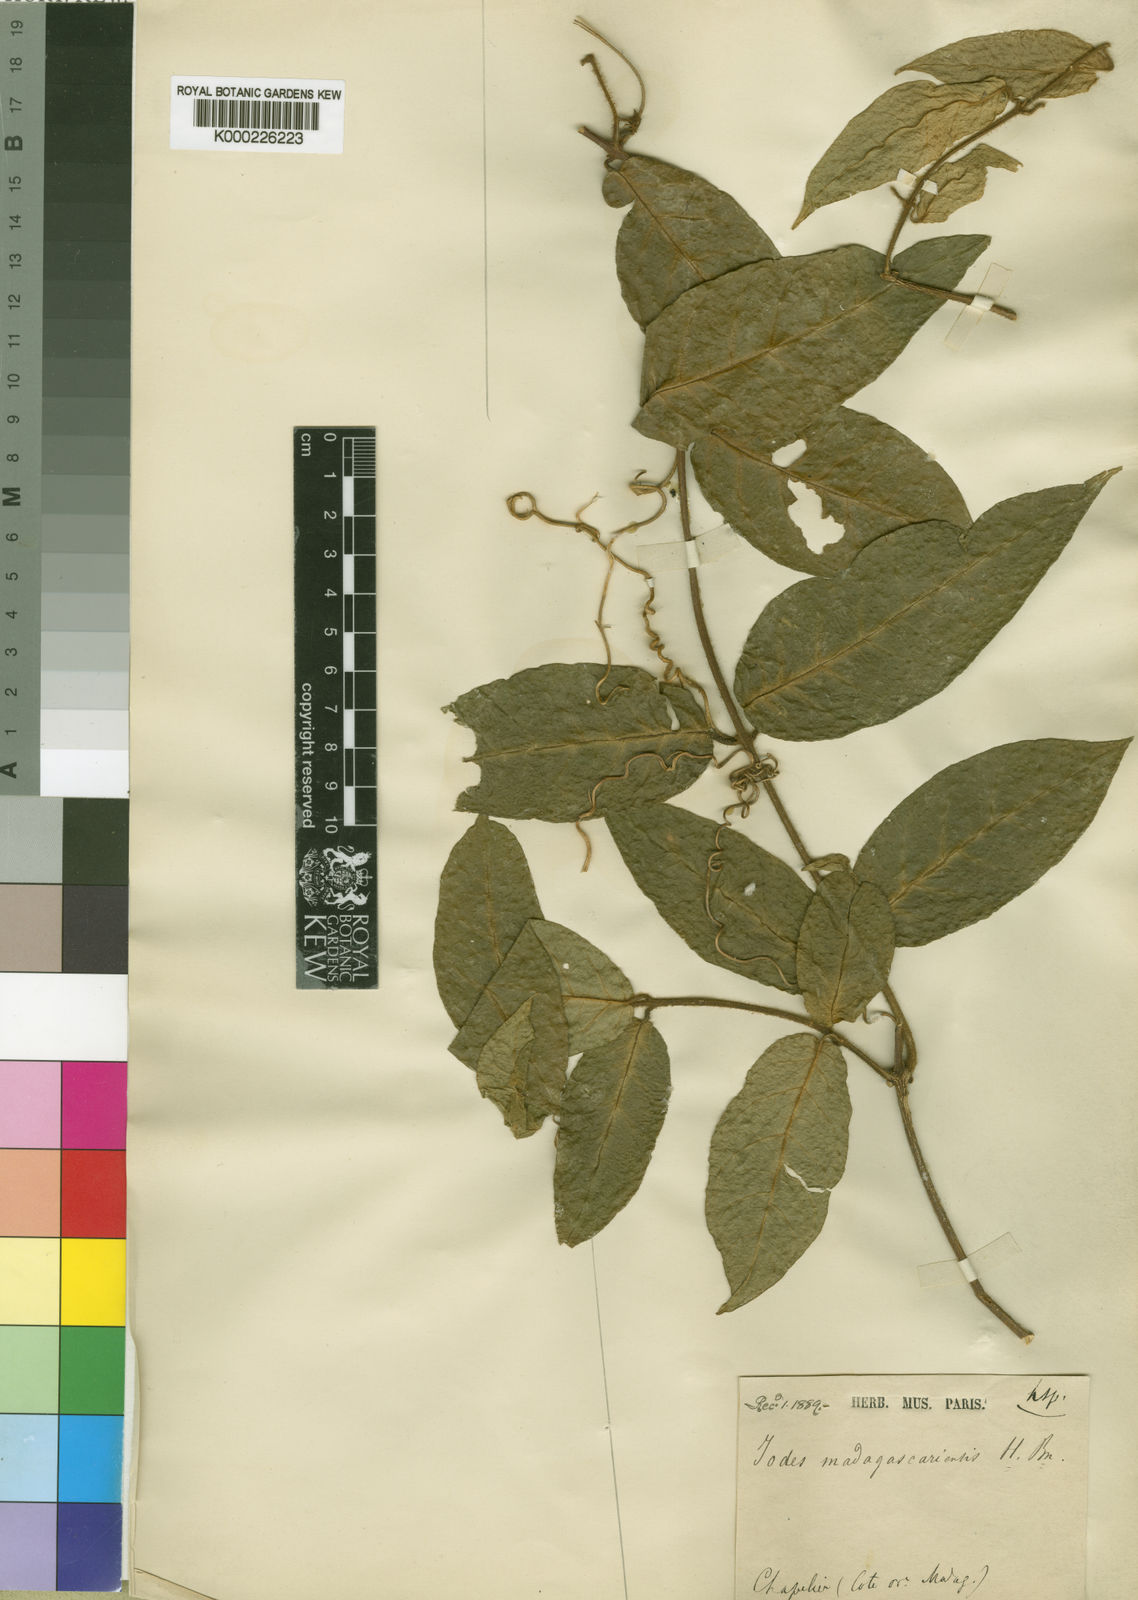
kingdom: Plantae
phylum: Tracheophyta
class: Magnoliopsida
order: Icacinales
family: Icacinaceae
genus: Iodes
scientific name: Iodes madagascariensis
